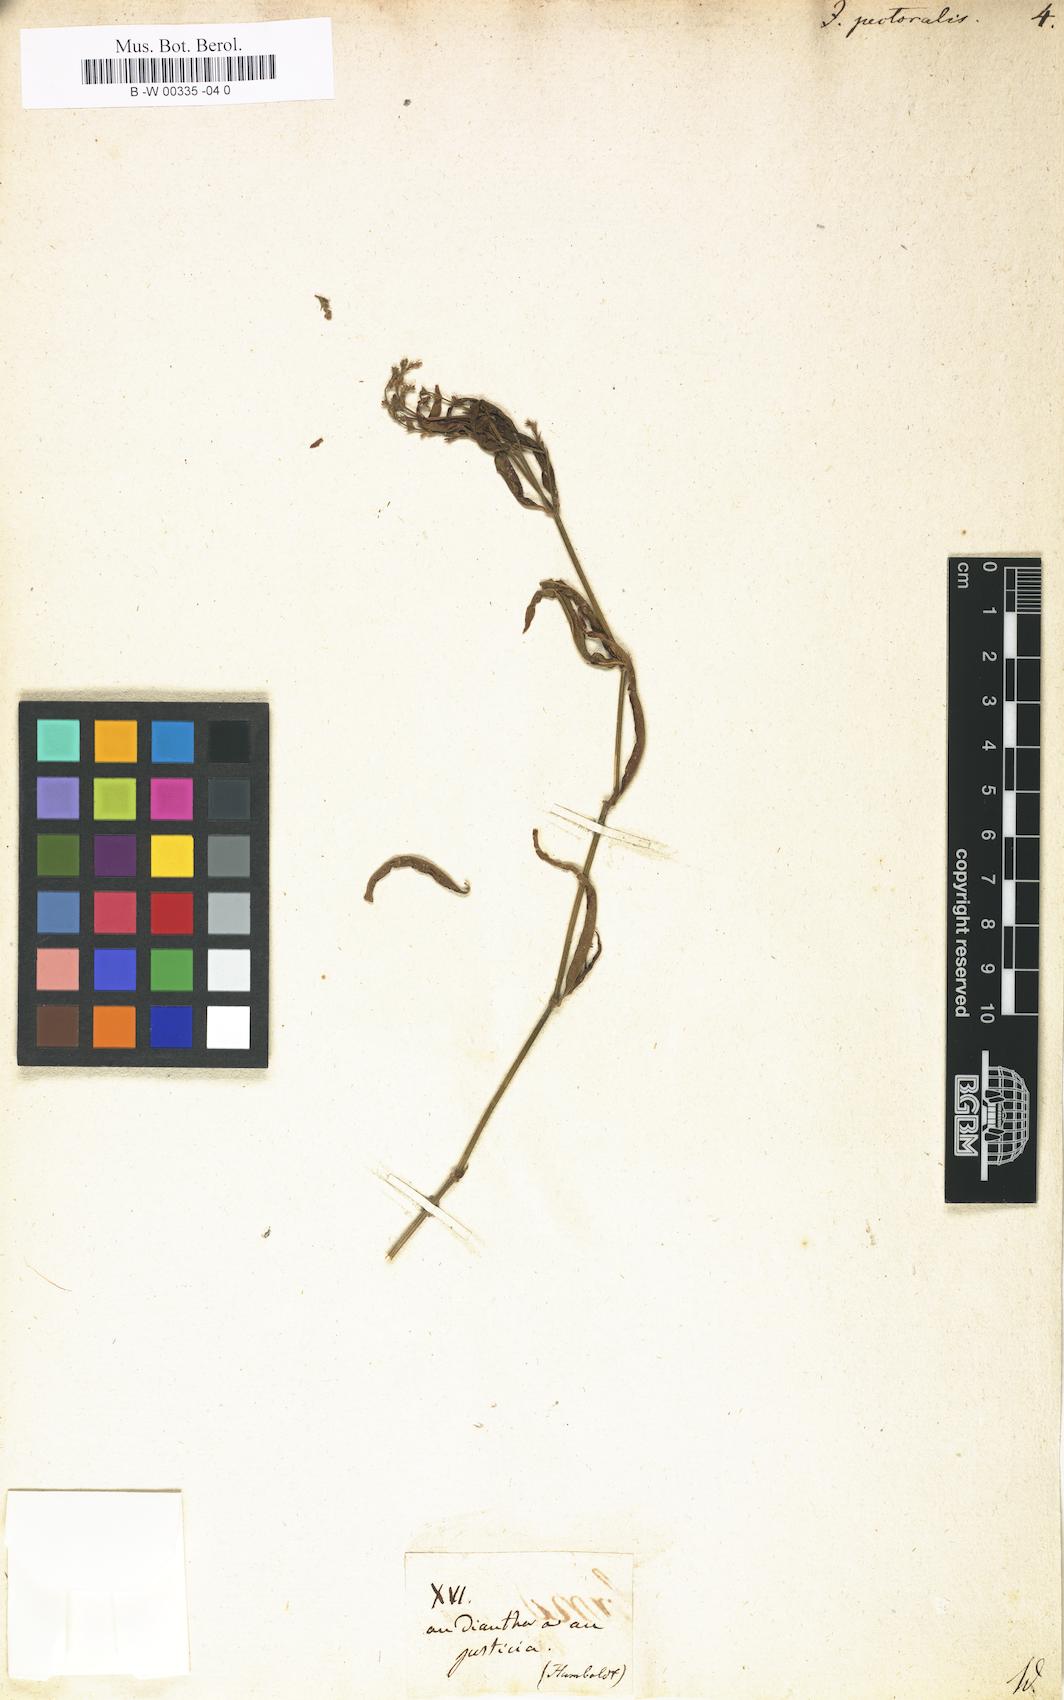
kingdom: Plantae
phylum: Tracheophyta
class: Magnoliopsida
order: Lamiales
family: Acanthaceae
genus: Dianthera
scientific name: Dianthera pectoralis
